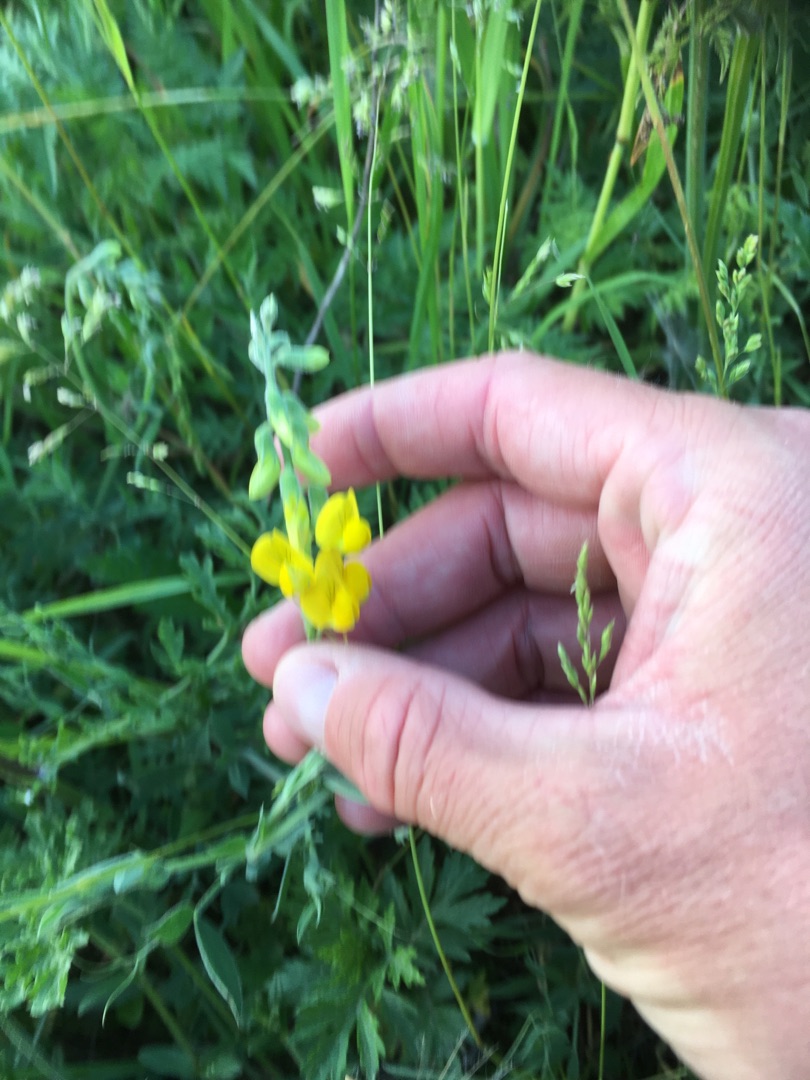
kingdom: Plantae
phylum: Tracheophyta
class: Magnoliopsida
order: Fabales
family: Fabaceae
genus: Lathyrus
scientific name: Lathyrus pratensis
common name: Gul fladbælg
